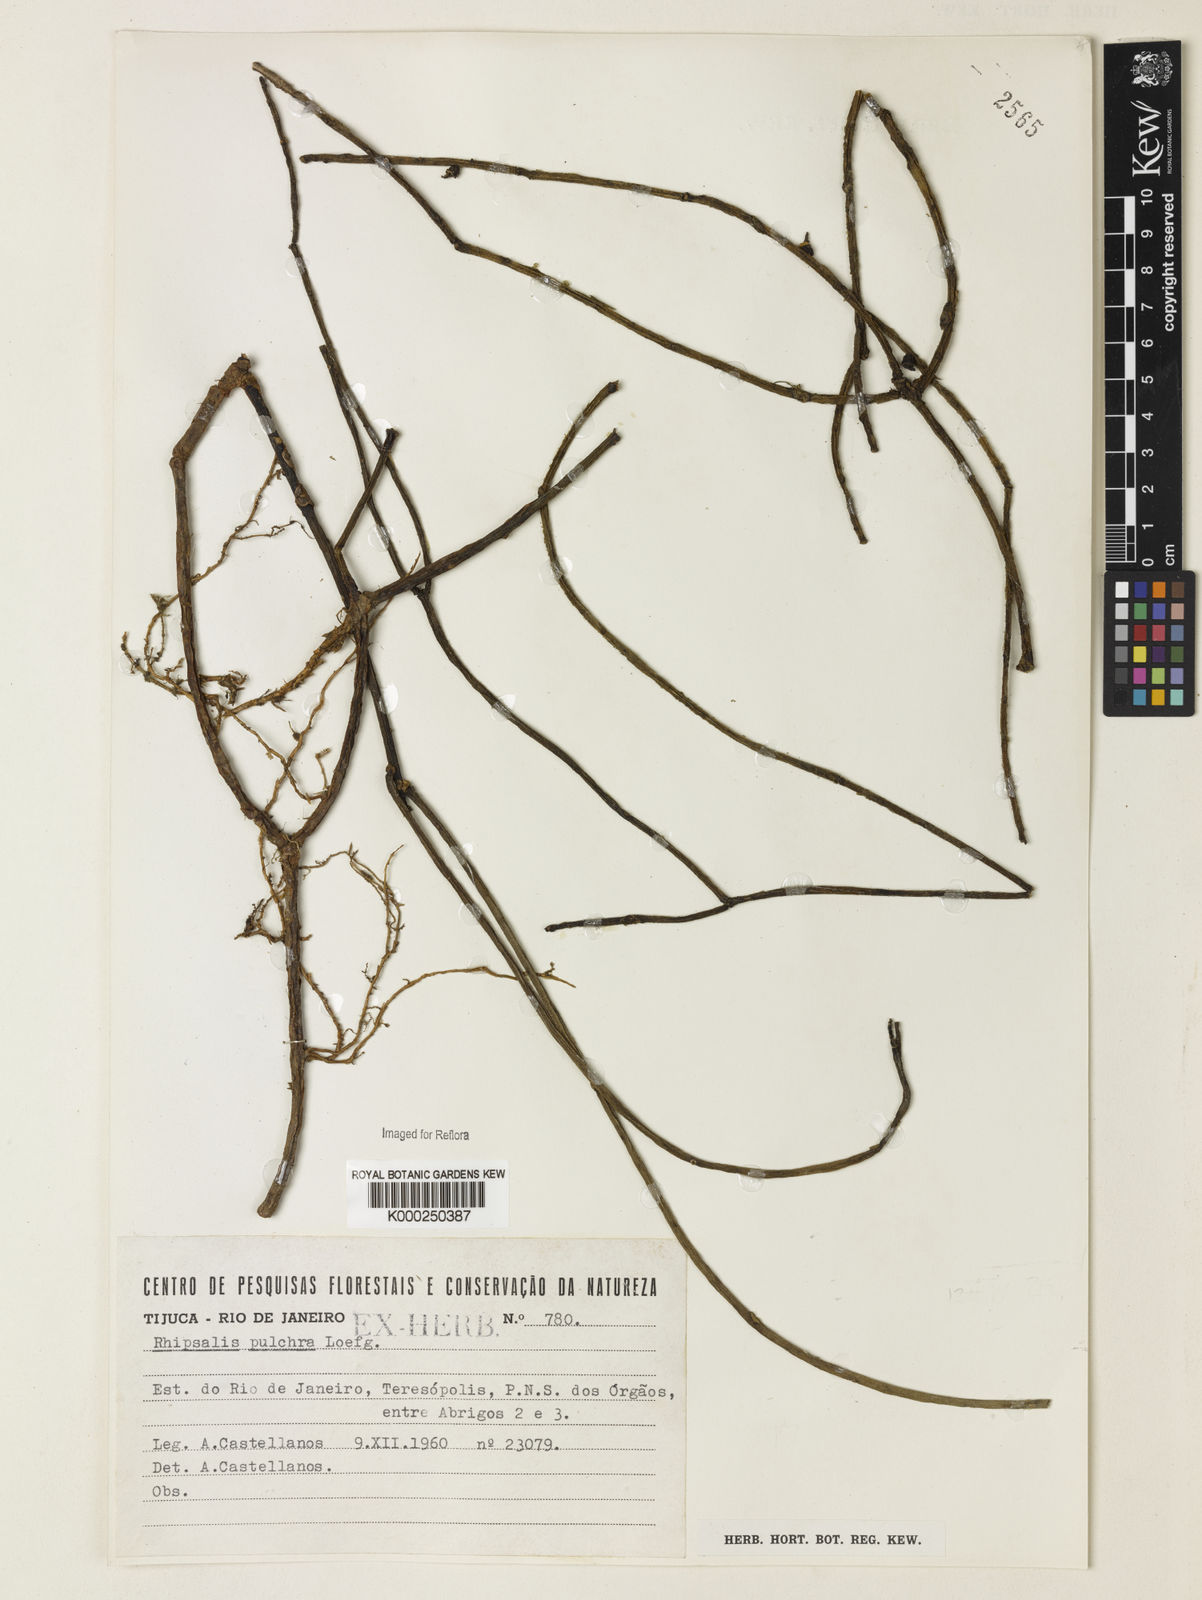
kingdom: Plantae
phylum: Tracheophyta
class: Magnoliopsida
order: Caryophyllales
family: Cactaceae
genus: Rhipsalis
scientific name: Rhipsalis
